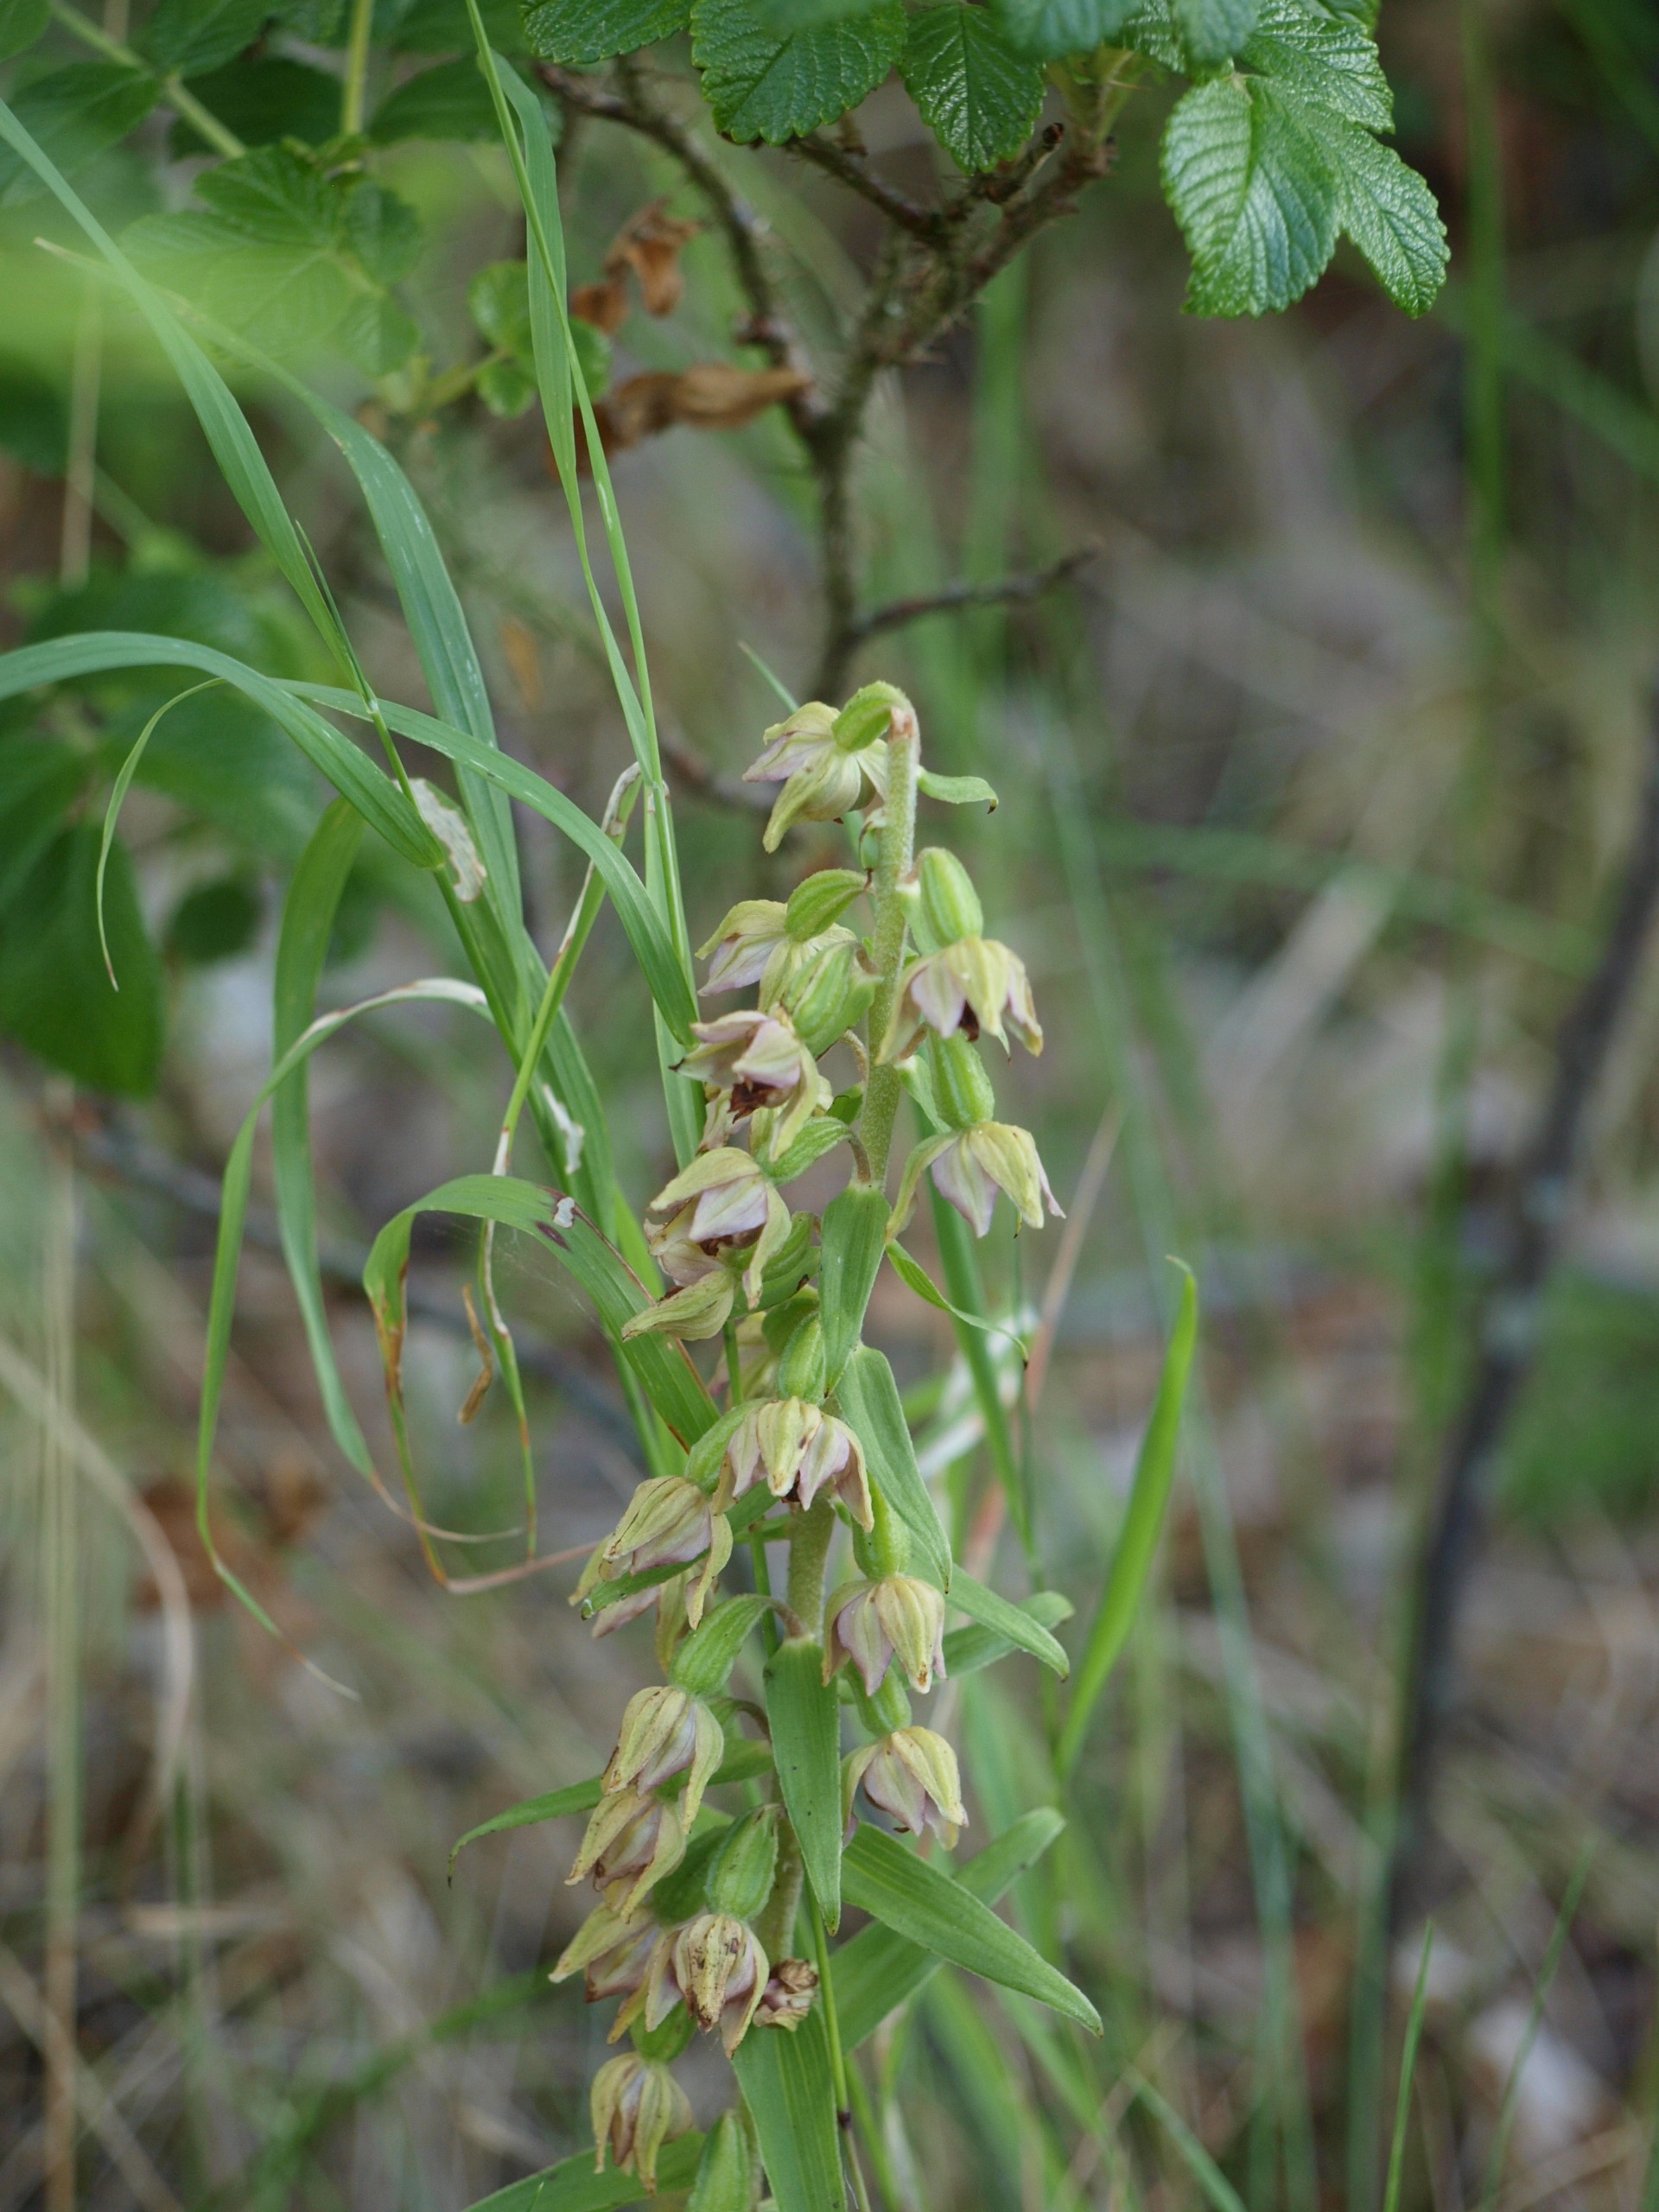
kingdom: Plantae
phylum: Tracheophyta
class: Liliopsida
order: Asparagales
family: Orchidaceae
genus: Epipactis
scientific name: Epipactis helleborine
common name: Skov-hullæbe
